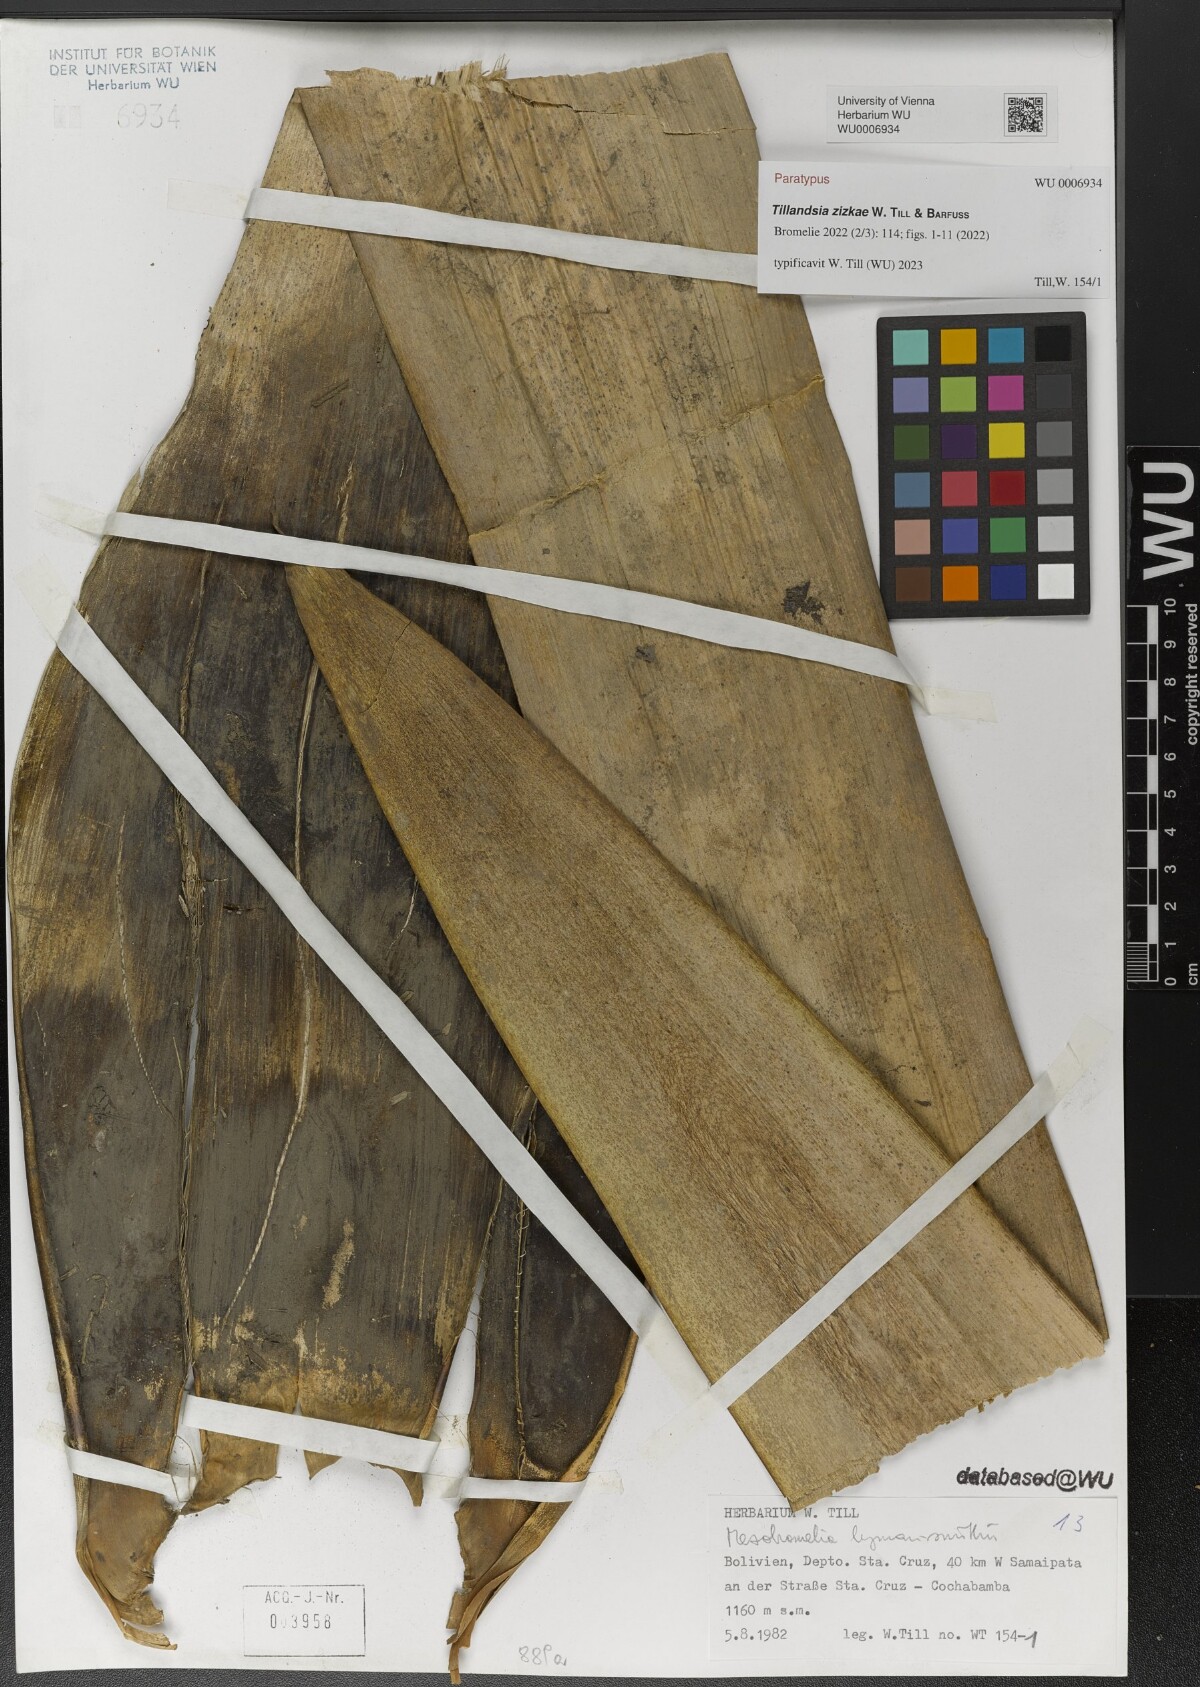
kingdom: Plantae
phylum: Tracheophyta
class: Liliopsida
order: Poales
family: Bromeliaceae
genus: Tillandsia
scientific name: Tillandsia
